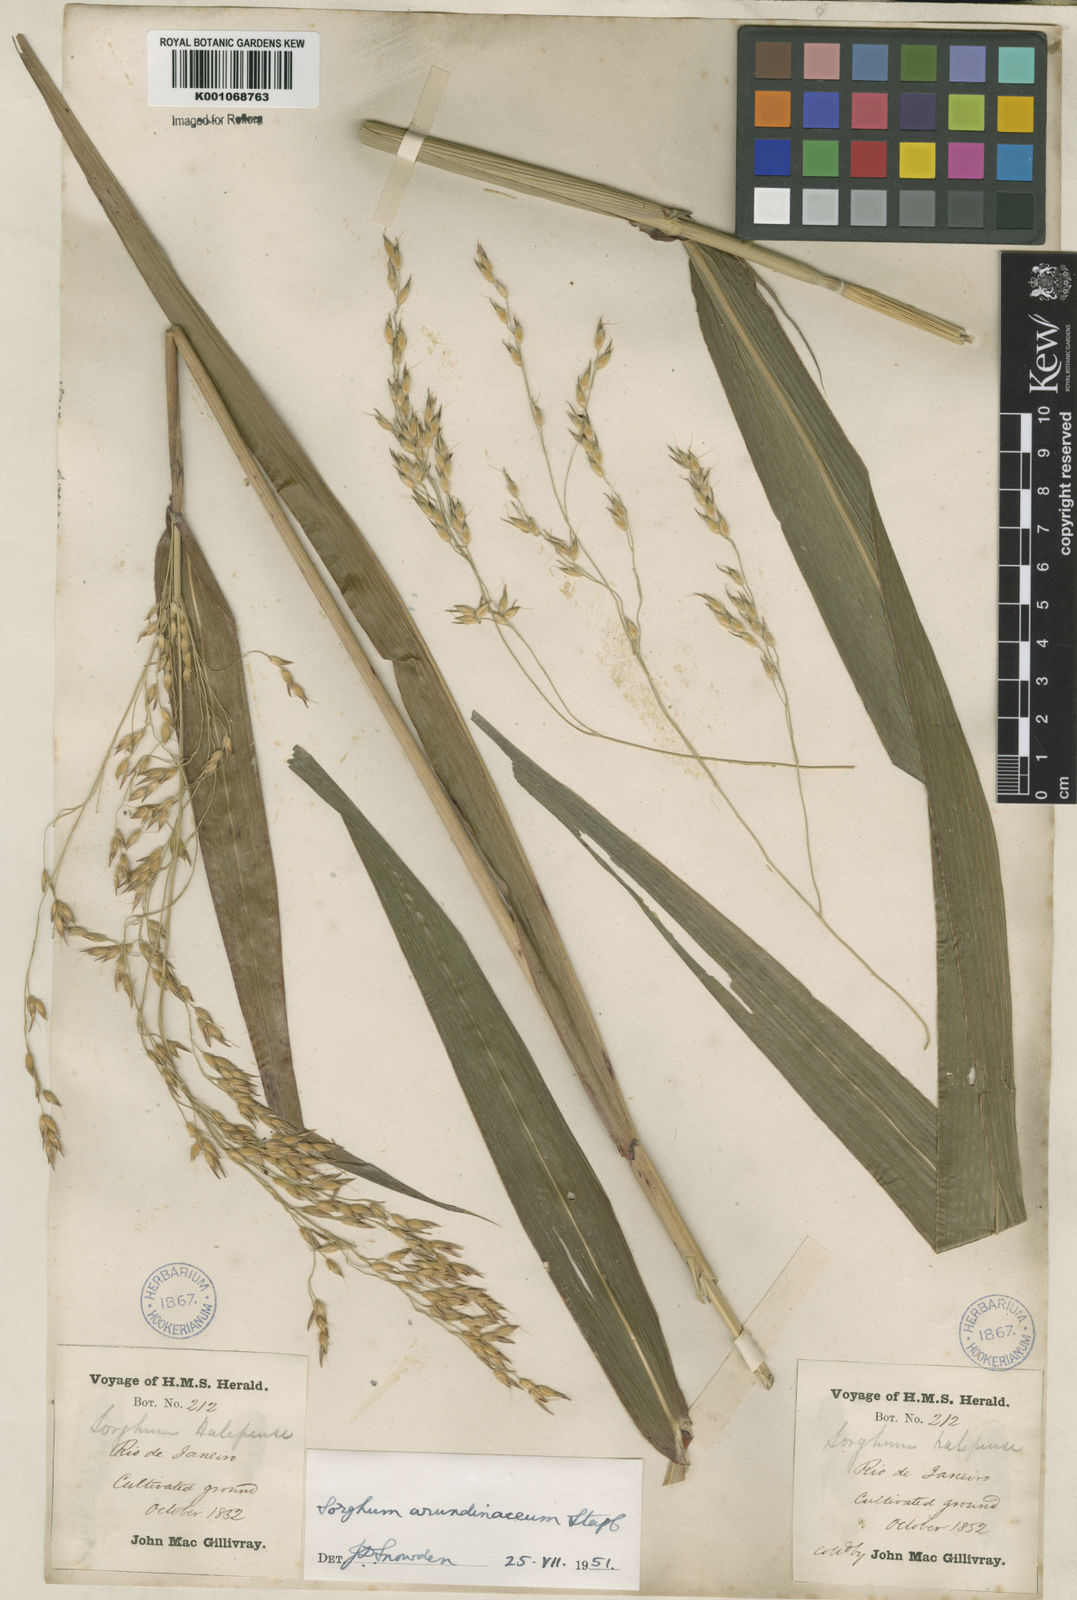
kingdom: Plantae
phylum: Tracheophyta
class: Liliopsida
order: Poales
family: Poaceae
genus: Sorghum
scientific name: Sorghum arundinaceum
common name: Sorghum
